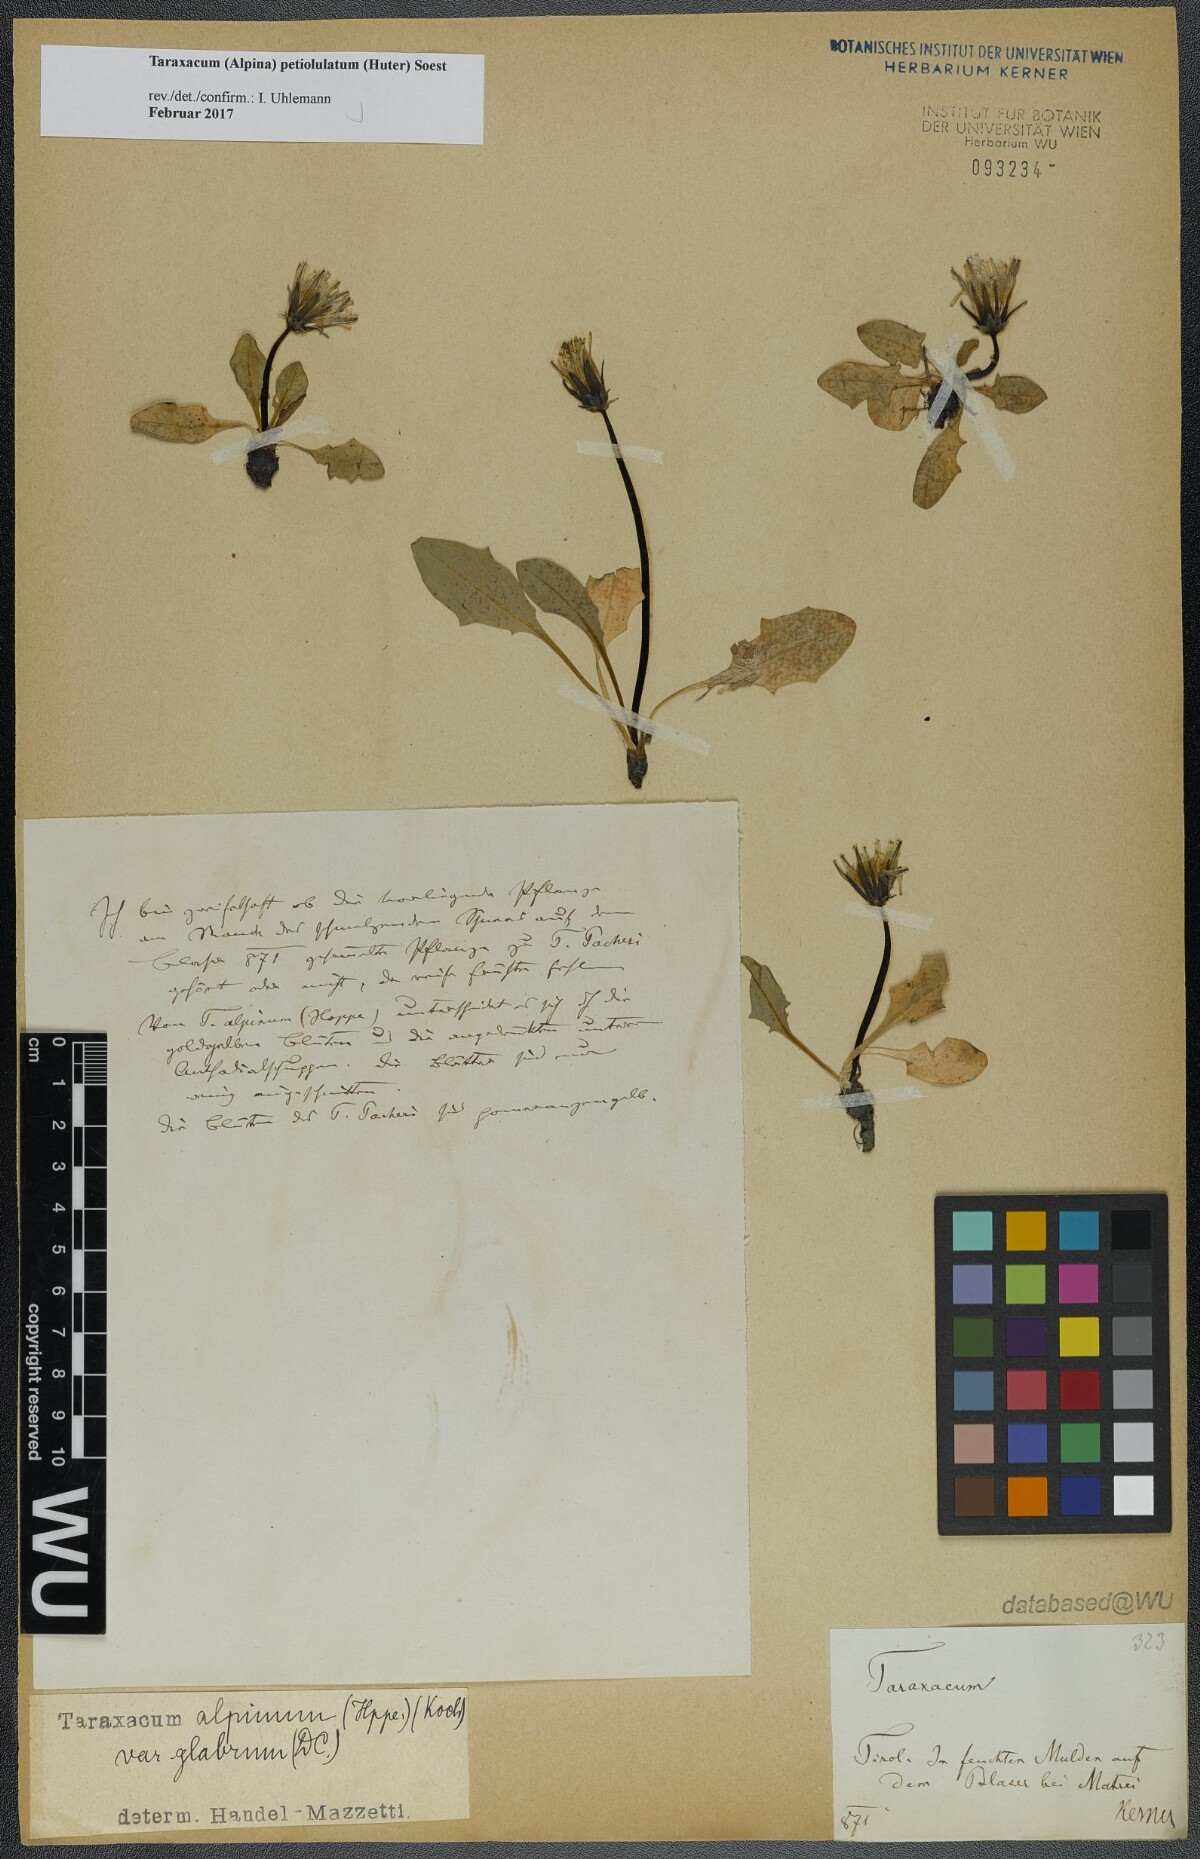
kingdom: Plantae
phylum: Tracheophyta
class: Magnoliopsida
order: Asterales
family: Asteraceae
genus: Taraxacum
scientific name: Taraxacum petiolulatum
